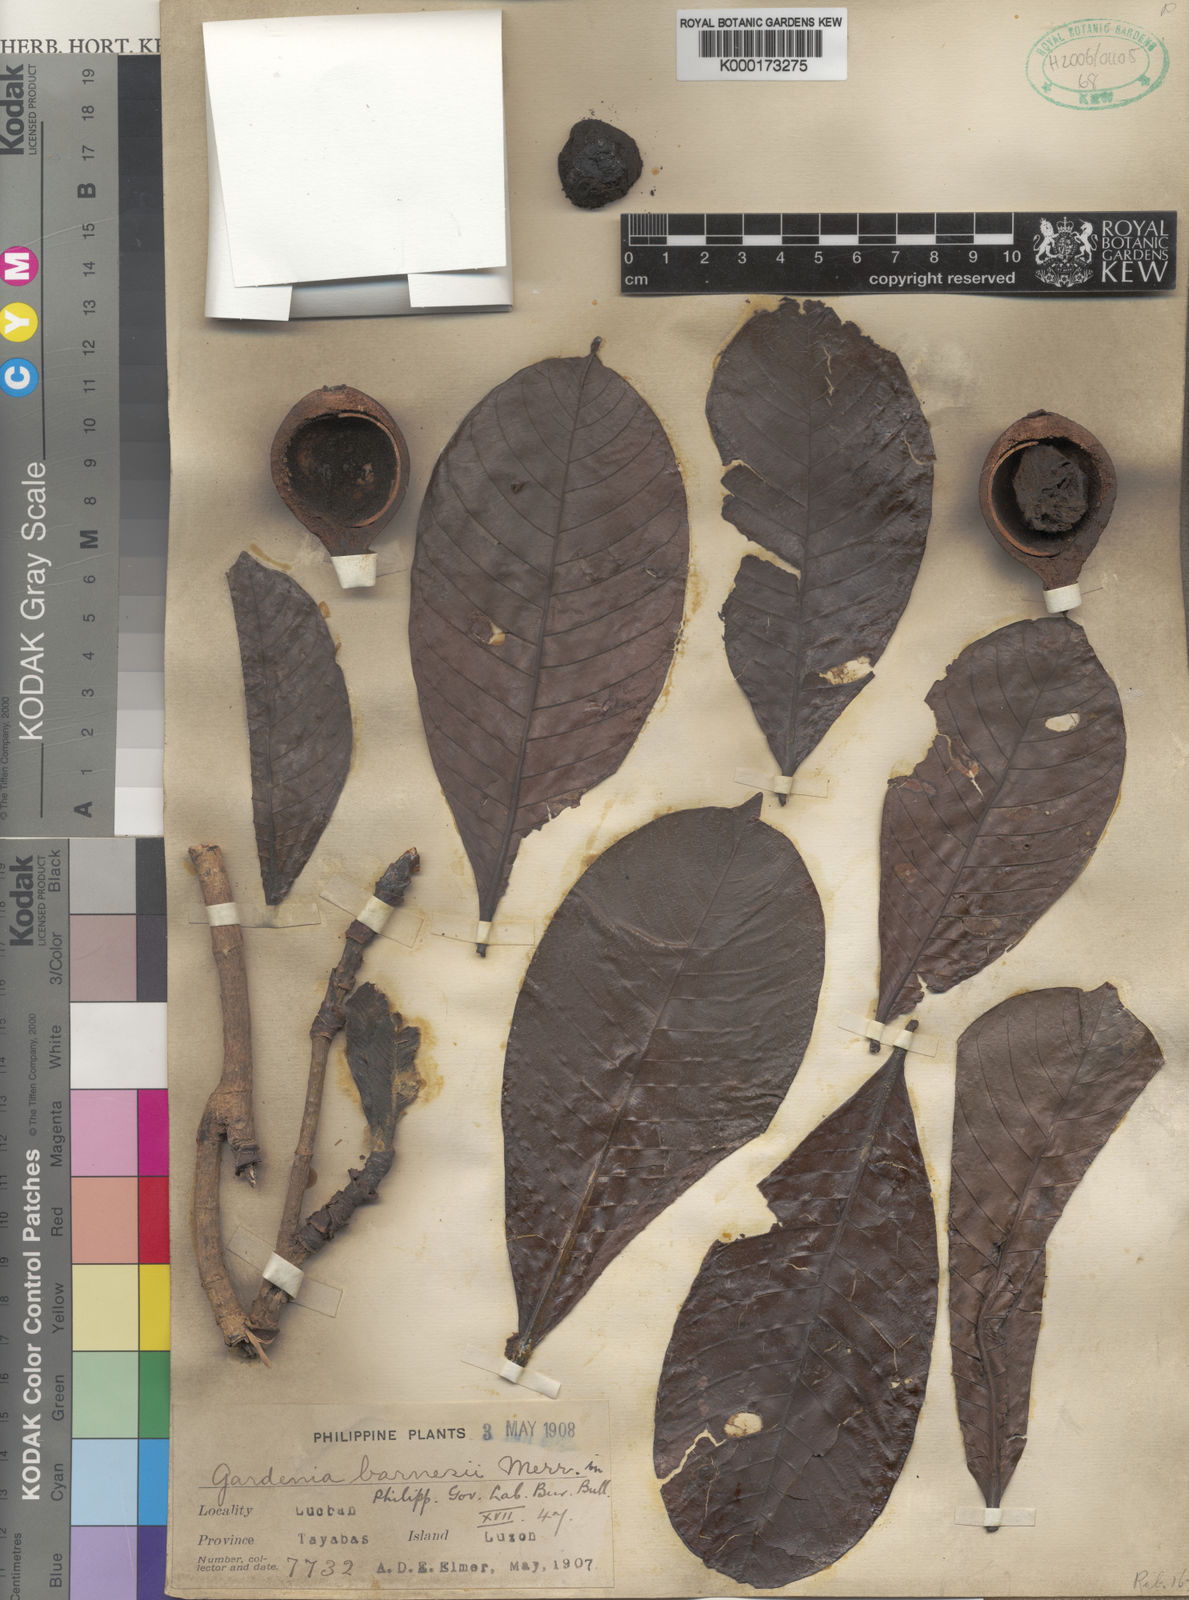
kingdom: Plantae
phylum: Tracheophyta
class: Magnoliopsida
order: Gentianales
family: Rubiaceae
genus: Gardenia
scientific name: Gardenia barnesii
